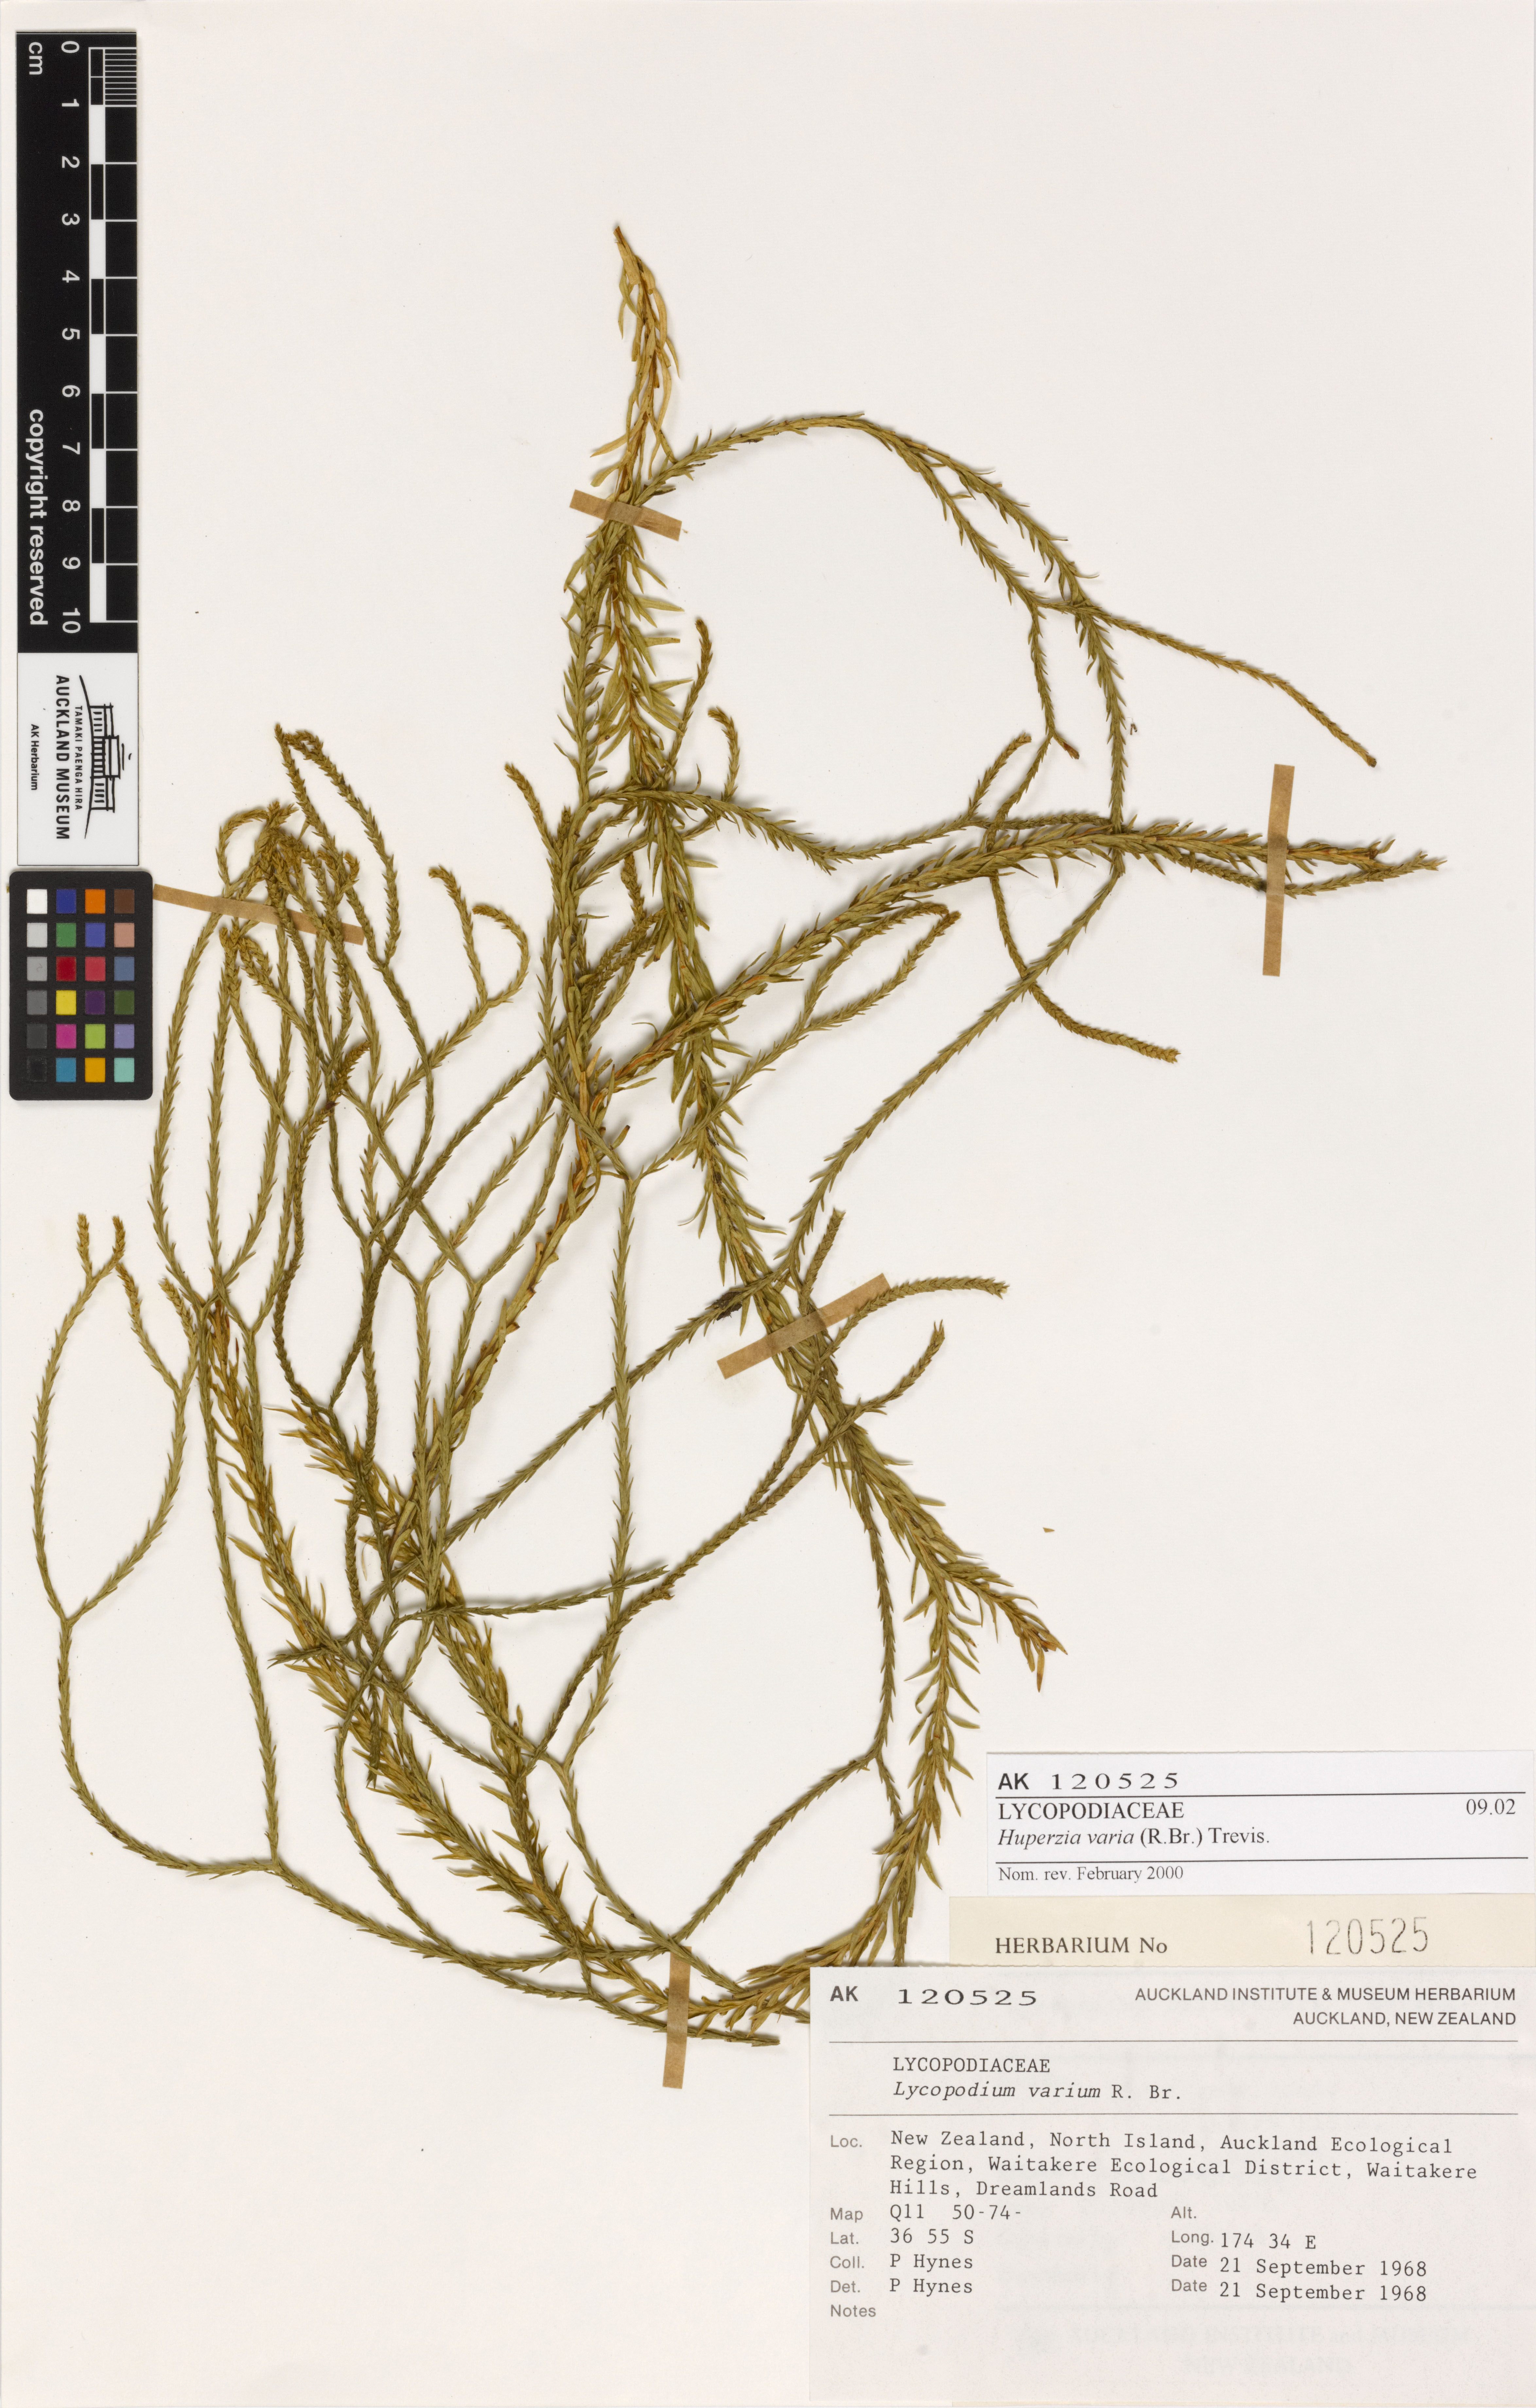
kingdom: Plantae
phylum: Tracheophyta
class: Lycopodiopsida
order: Lycopodiales
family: Lycopodiaceae
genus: Phlegmariurus
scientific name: Phlegmariurus billardierei
